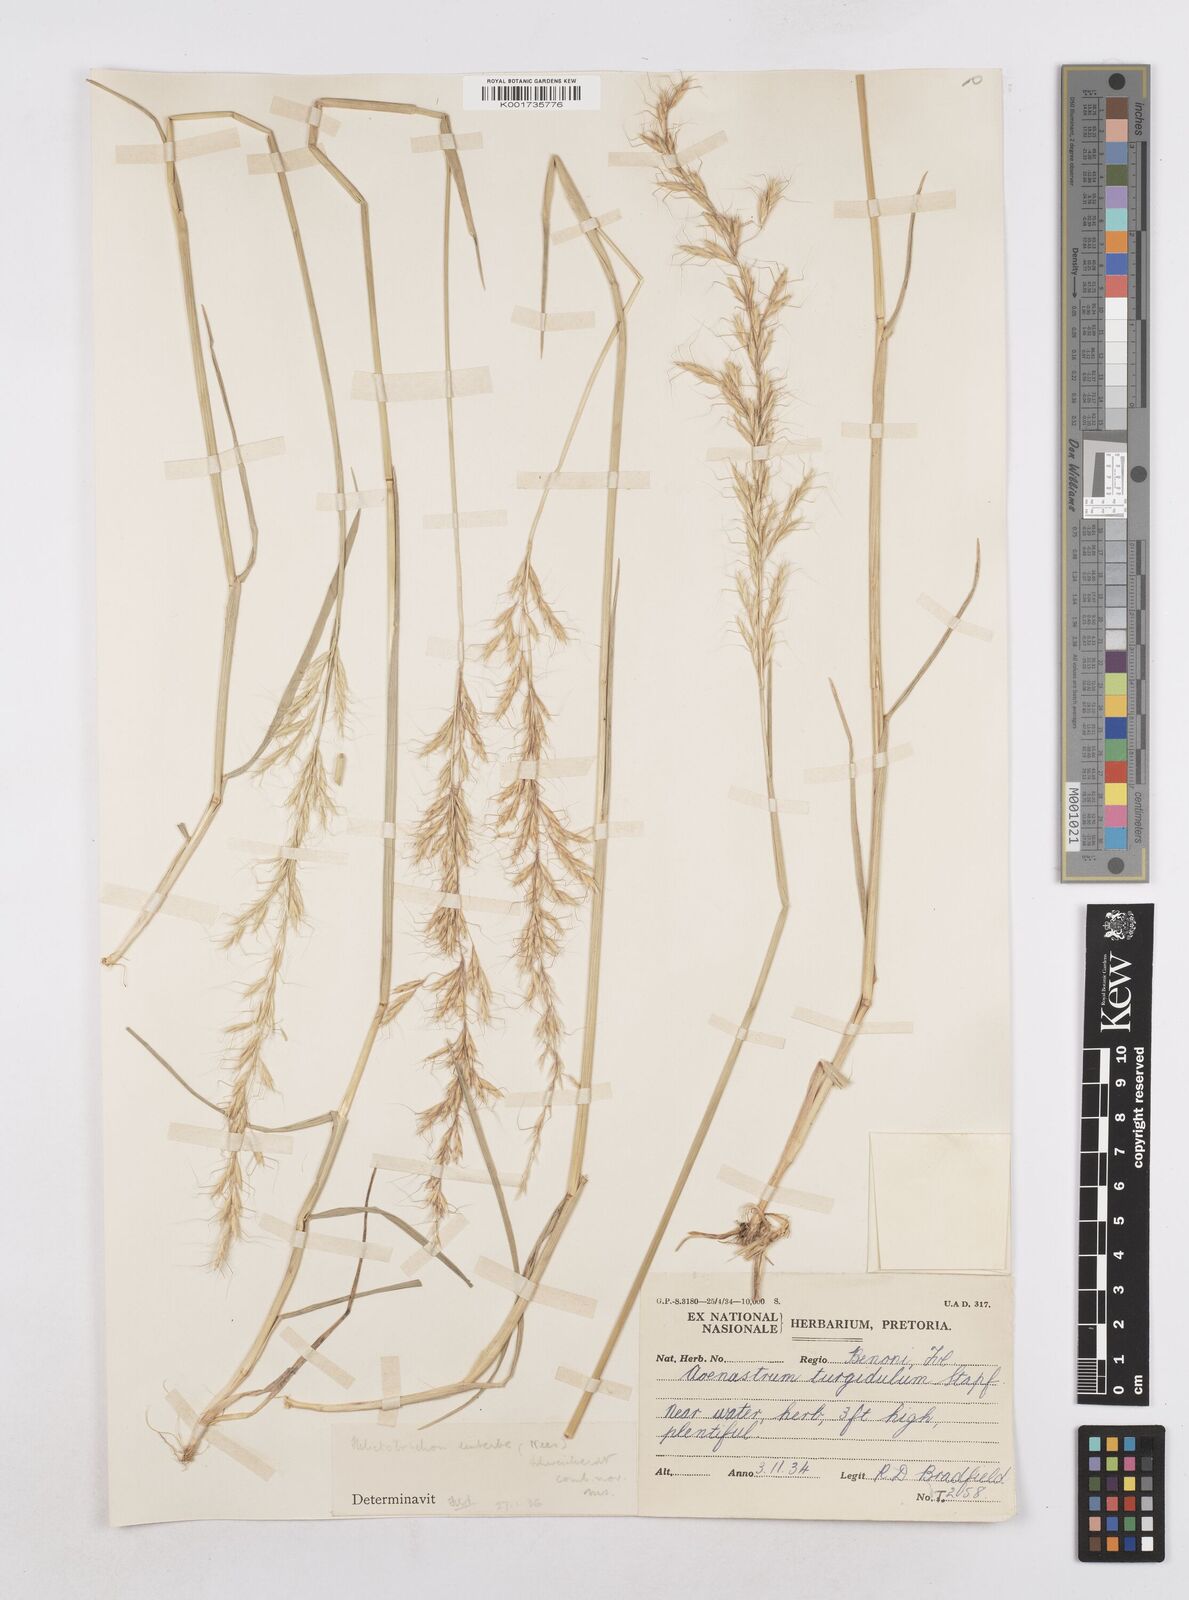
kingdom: Plantae
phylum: Tracheophyta
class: Liliopsida
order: Poales
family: Poaceae
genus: Trisetopsis
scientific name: Trisetopsis imberbis
